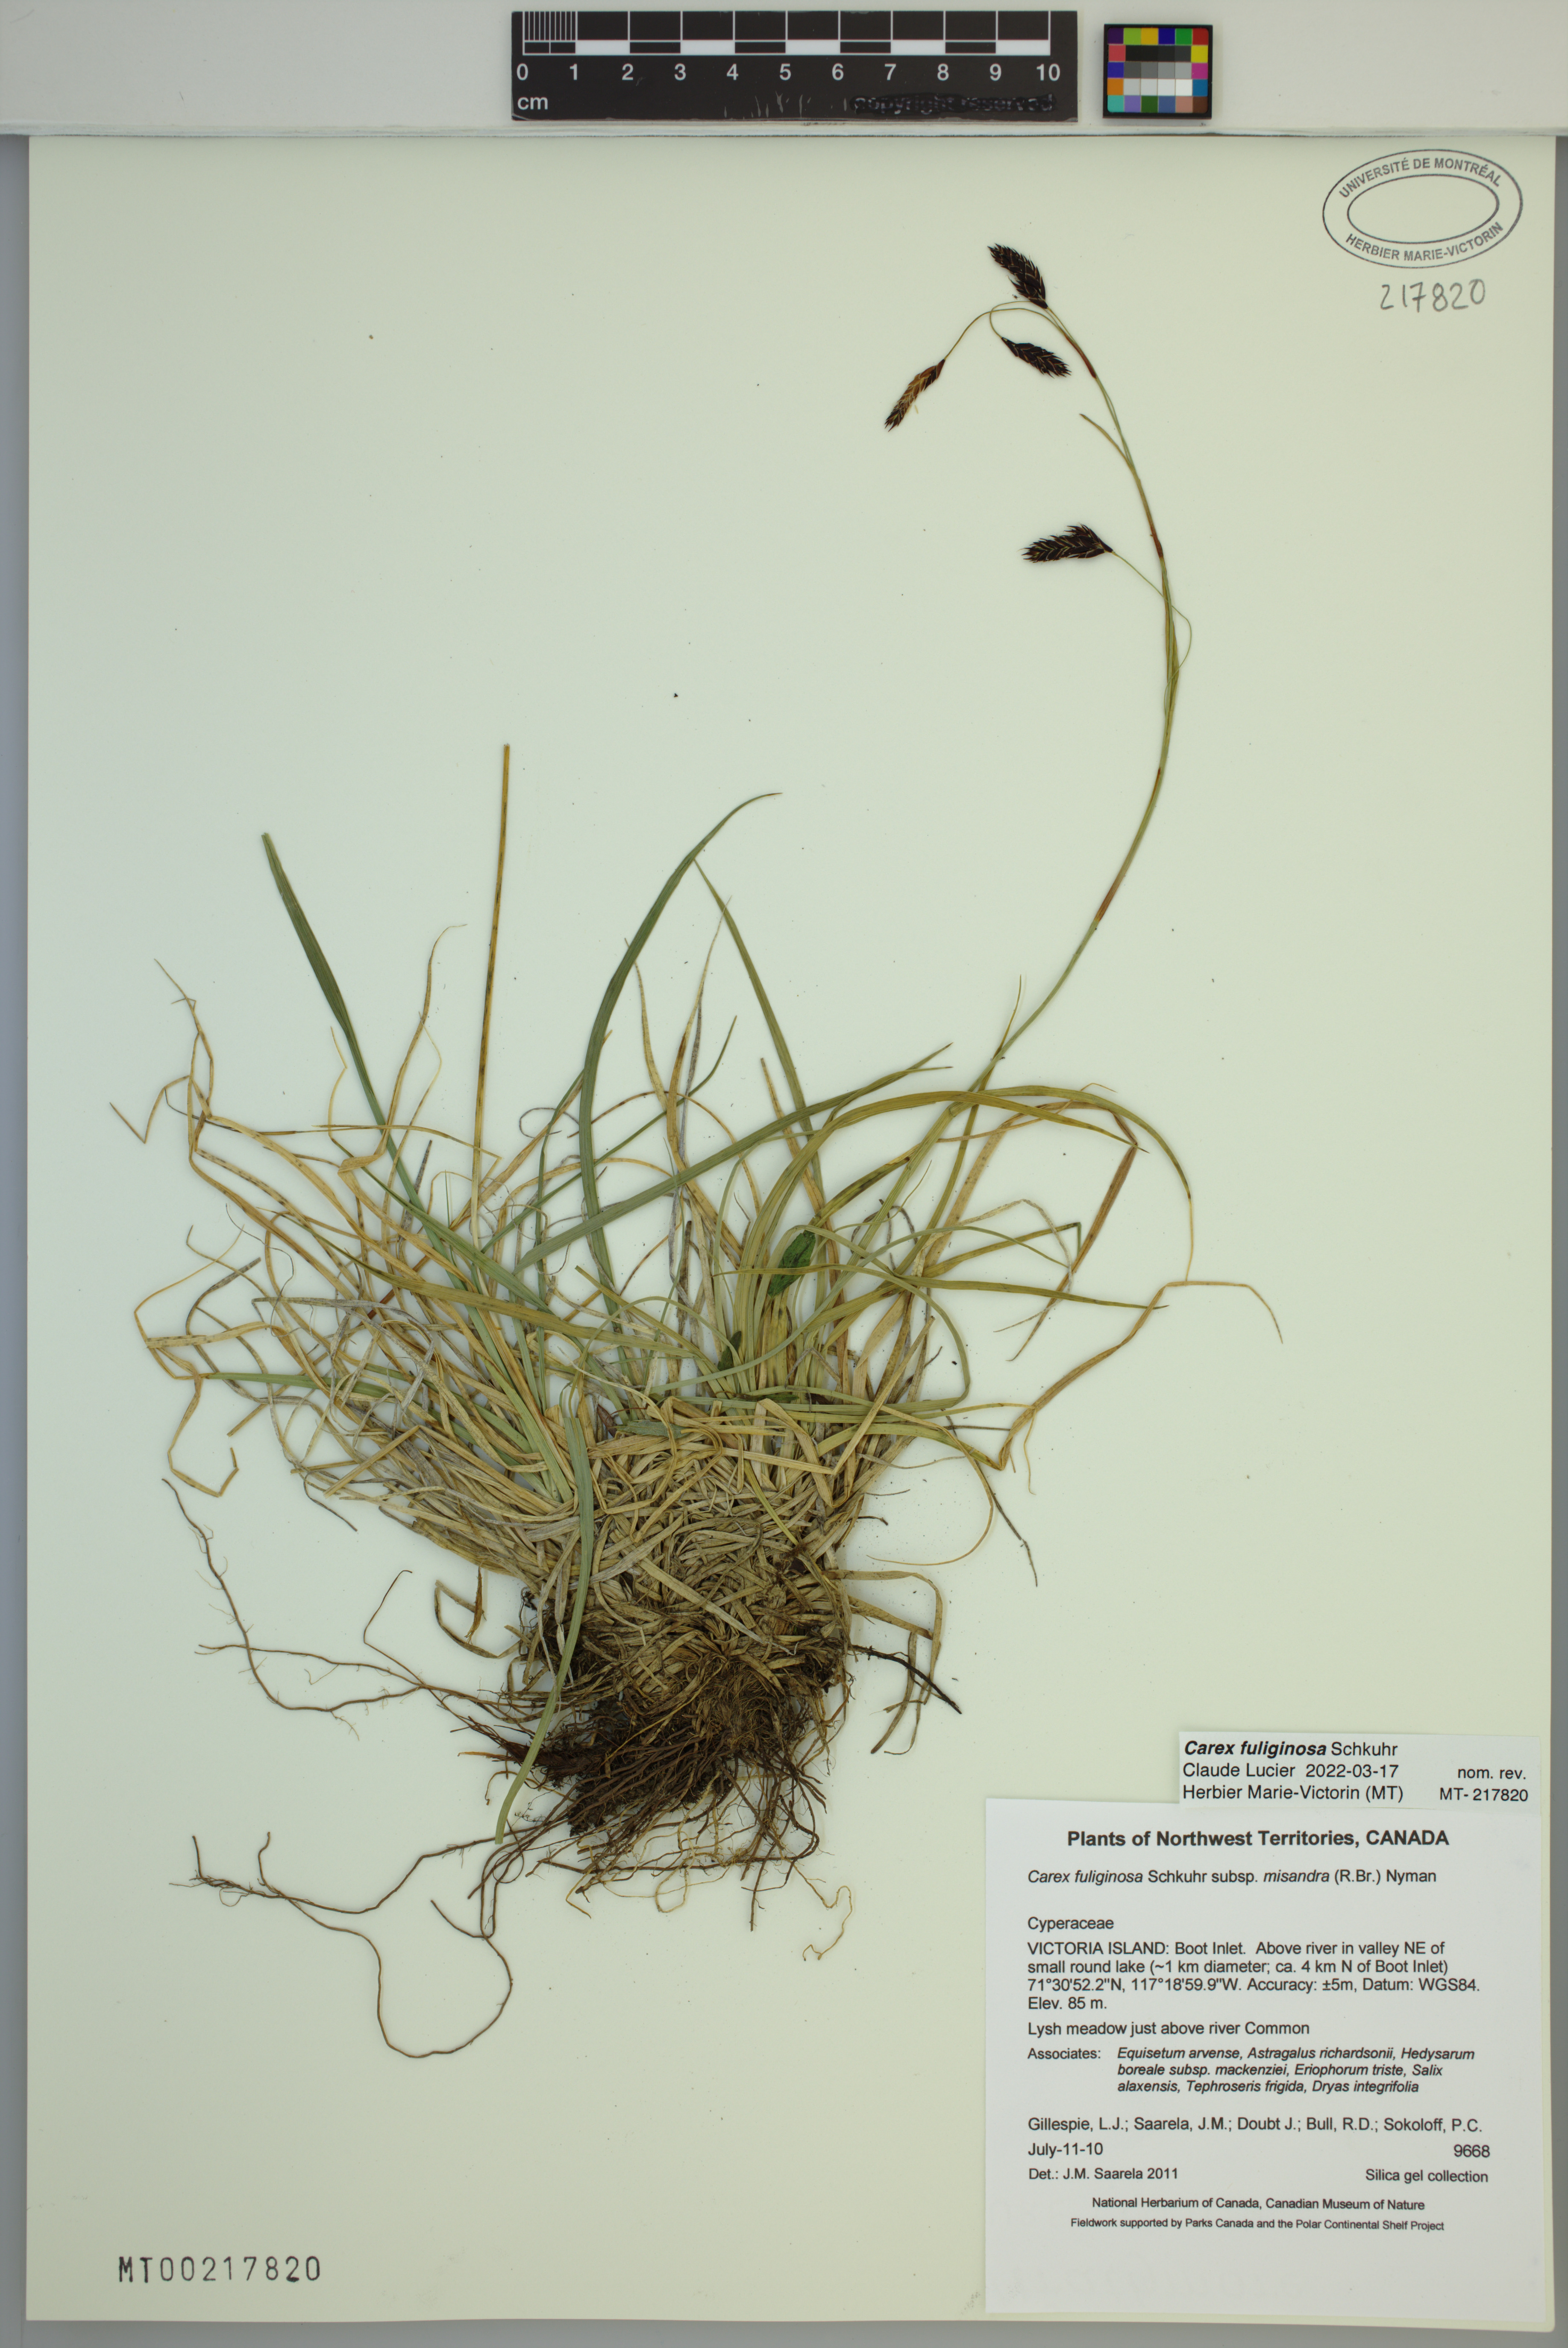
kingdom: Plantae
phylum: Tracheophyta
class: Liliopsida
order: Poales
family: Cyperaceae
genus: Carex
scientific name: Carex fuliginosa
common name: Few-flowered sedge
